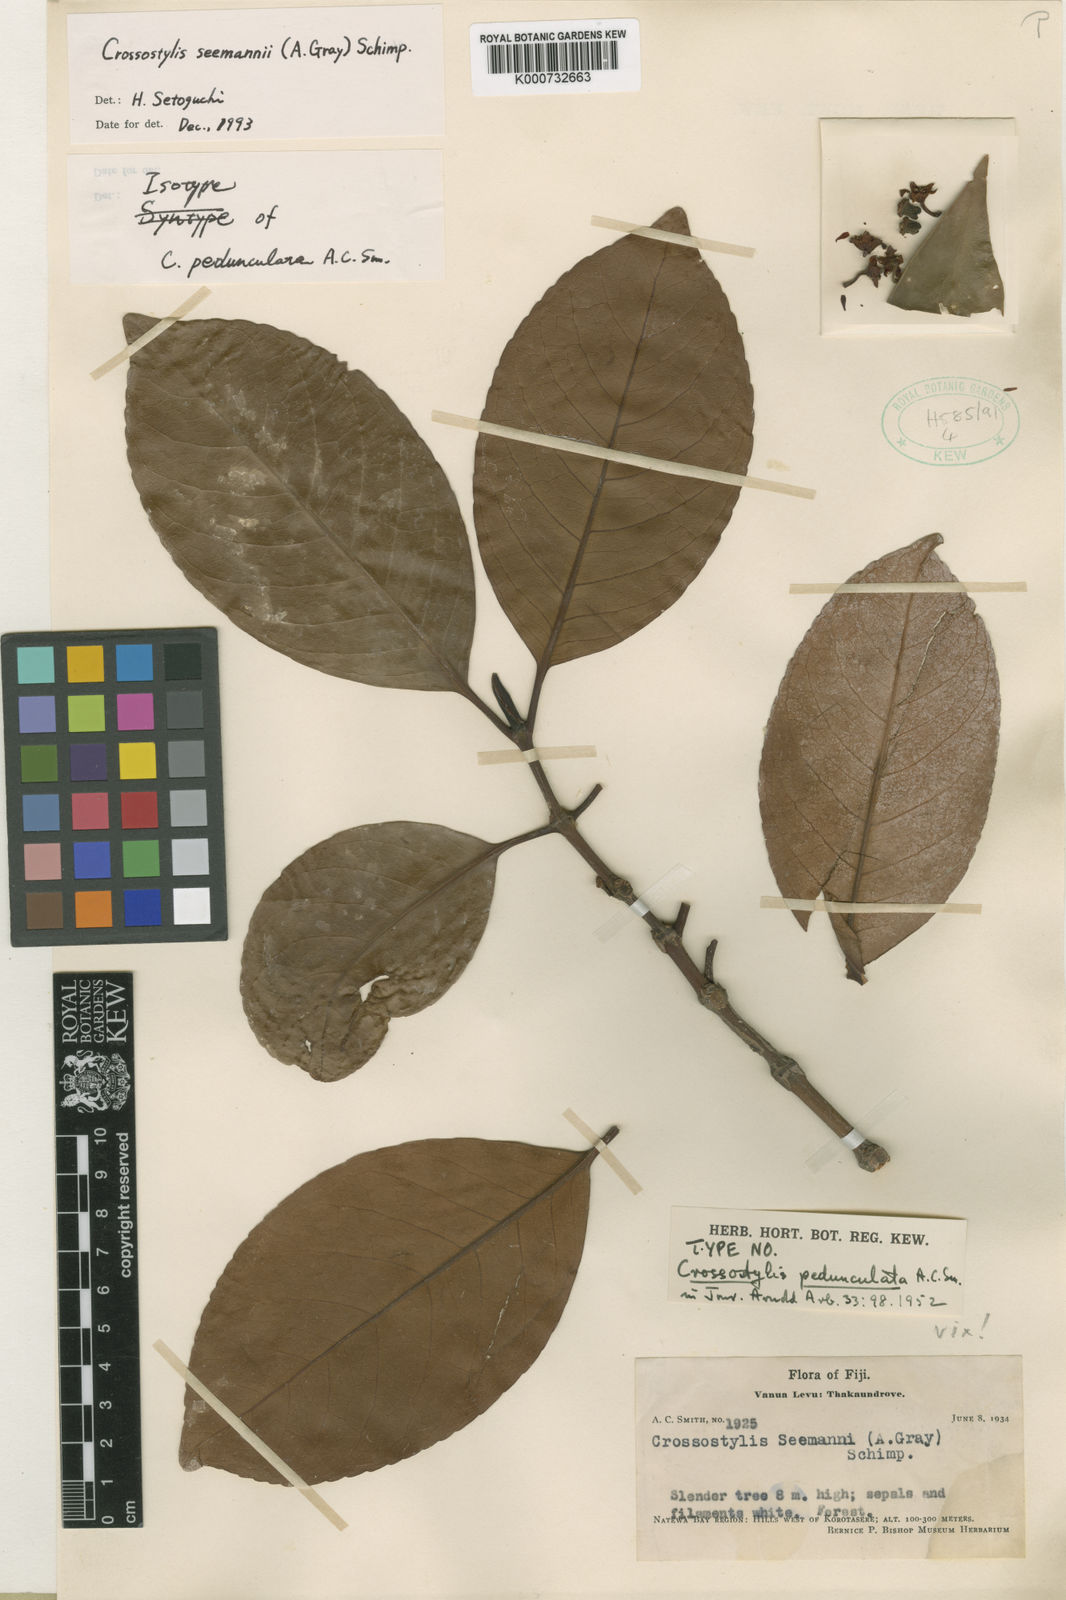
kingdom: Plantae
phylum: Tracheophyta
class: Magnoliopsida
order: Malpighiales
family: Rhizophoraceae
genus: Crossostylis
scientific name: Crossostylis seemannii
